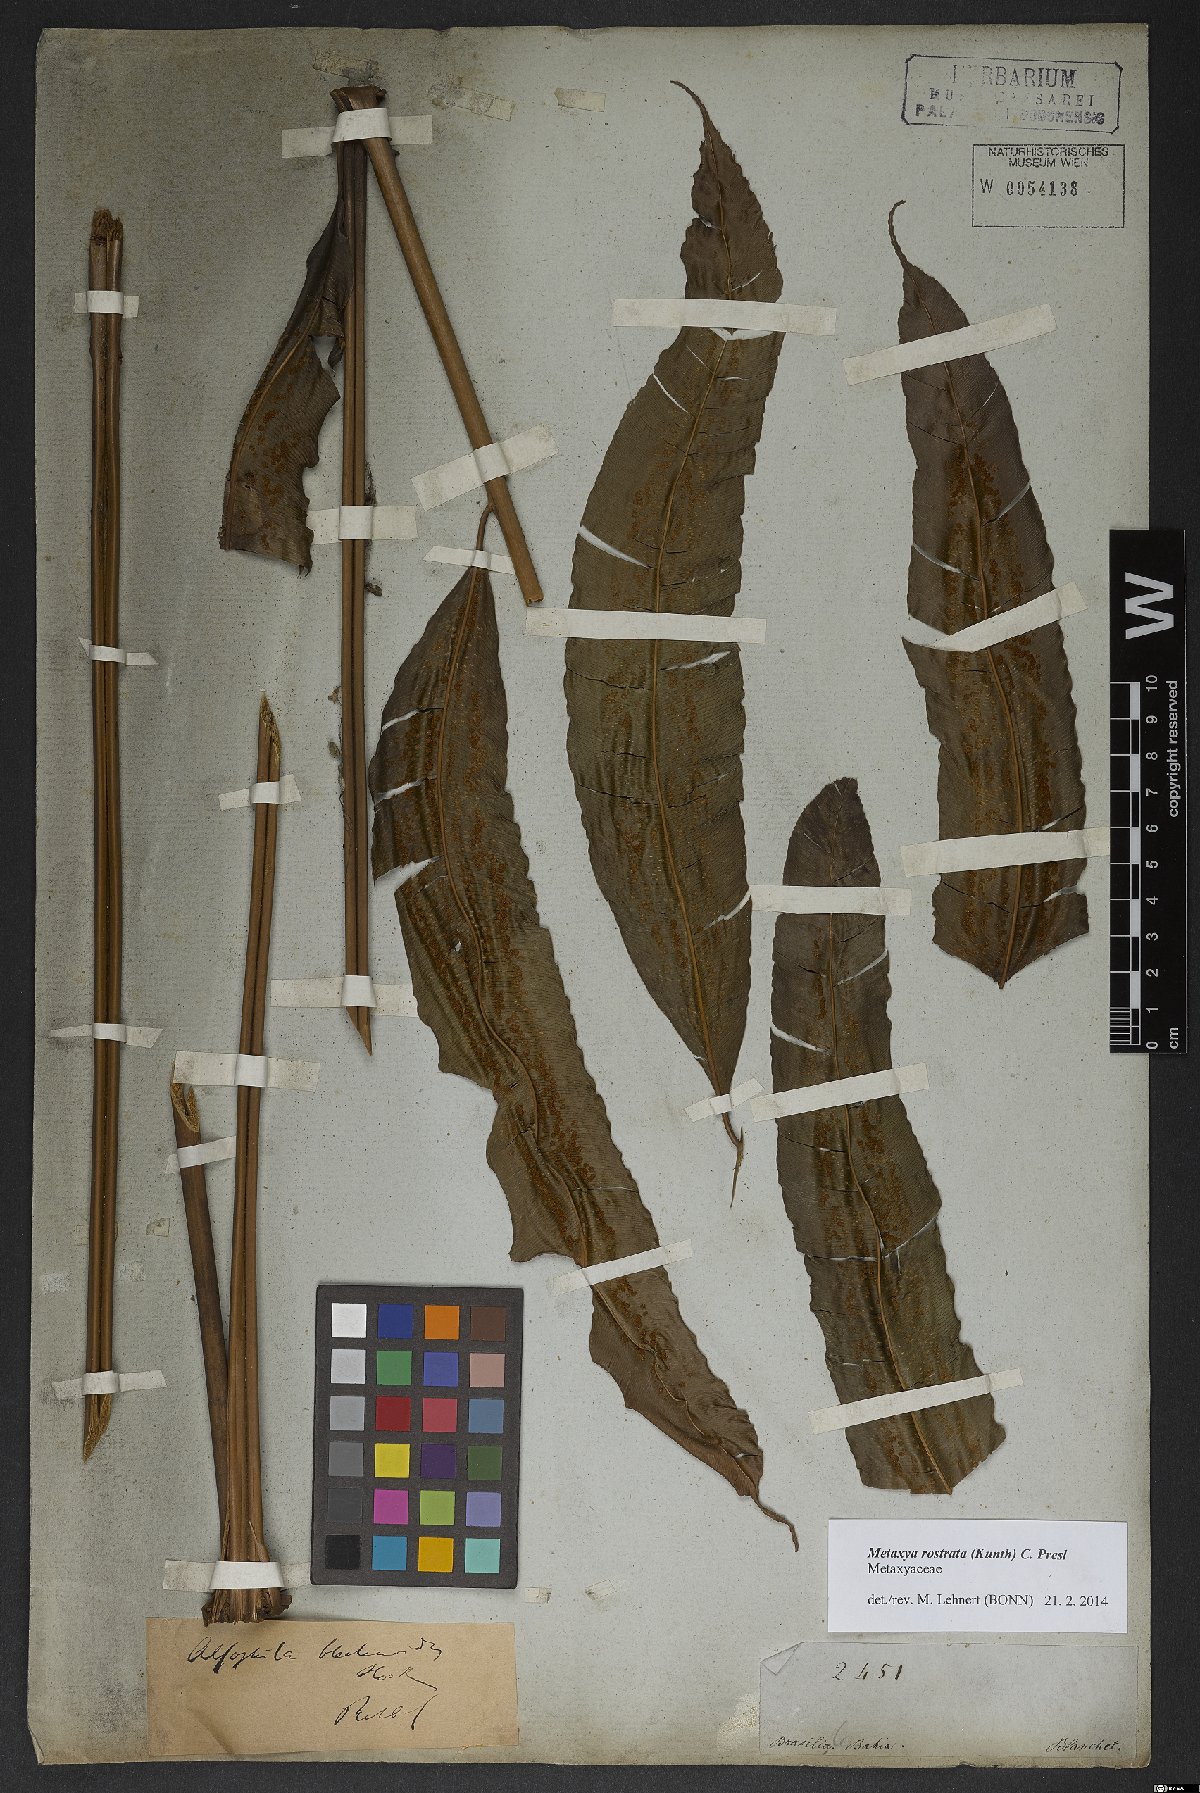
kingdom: Plantae
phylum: Tracheophyta
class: Polypodiopsida
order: Cyatheales
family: Metaxyaceae
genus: Metaxya
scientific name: Metaxya rostrata
